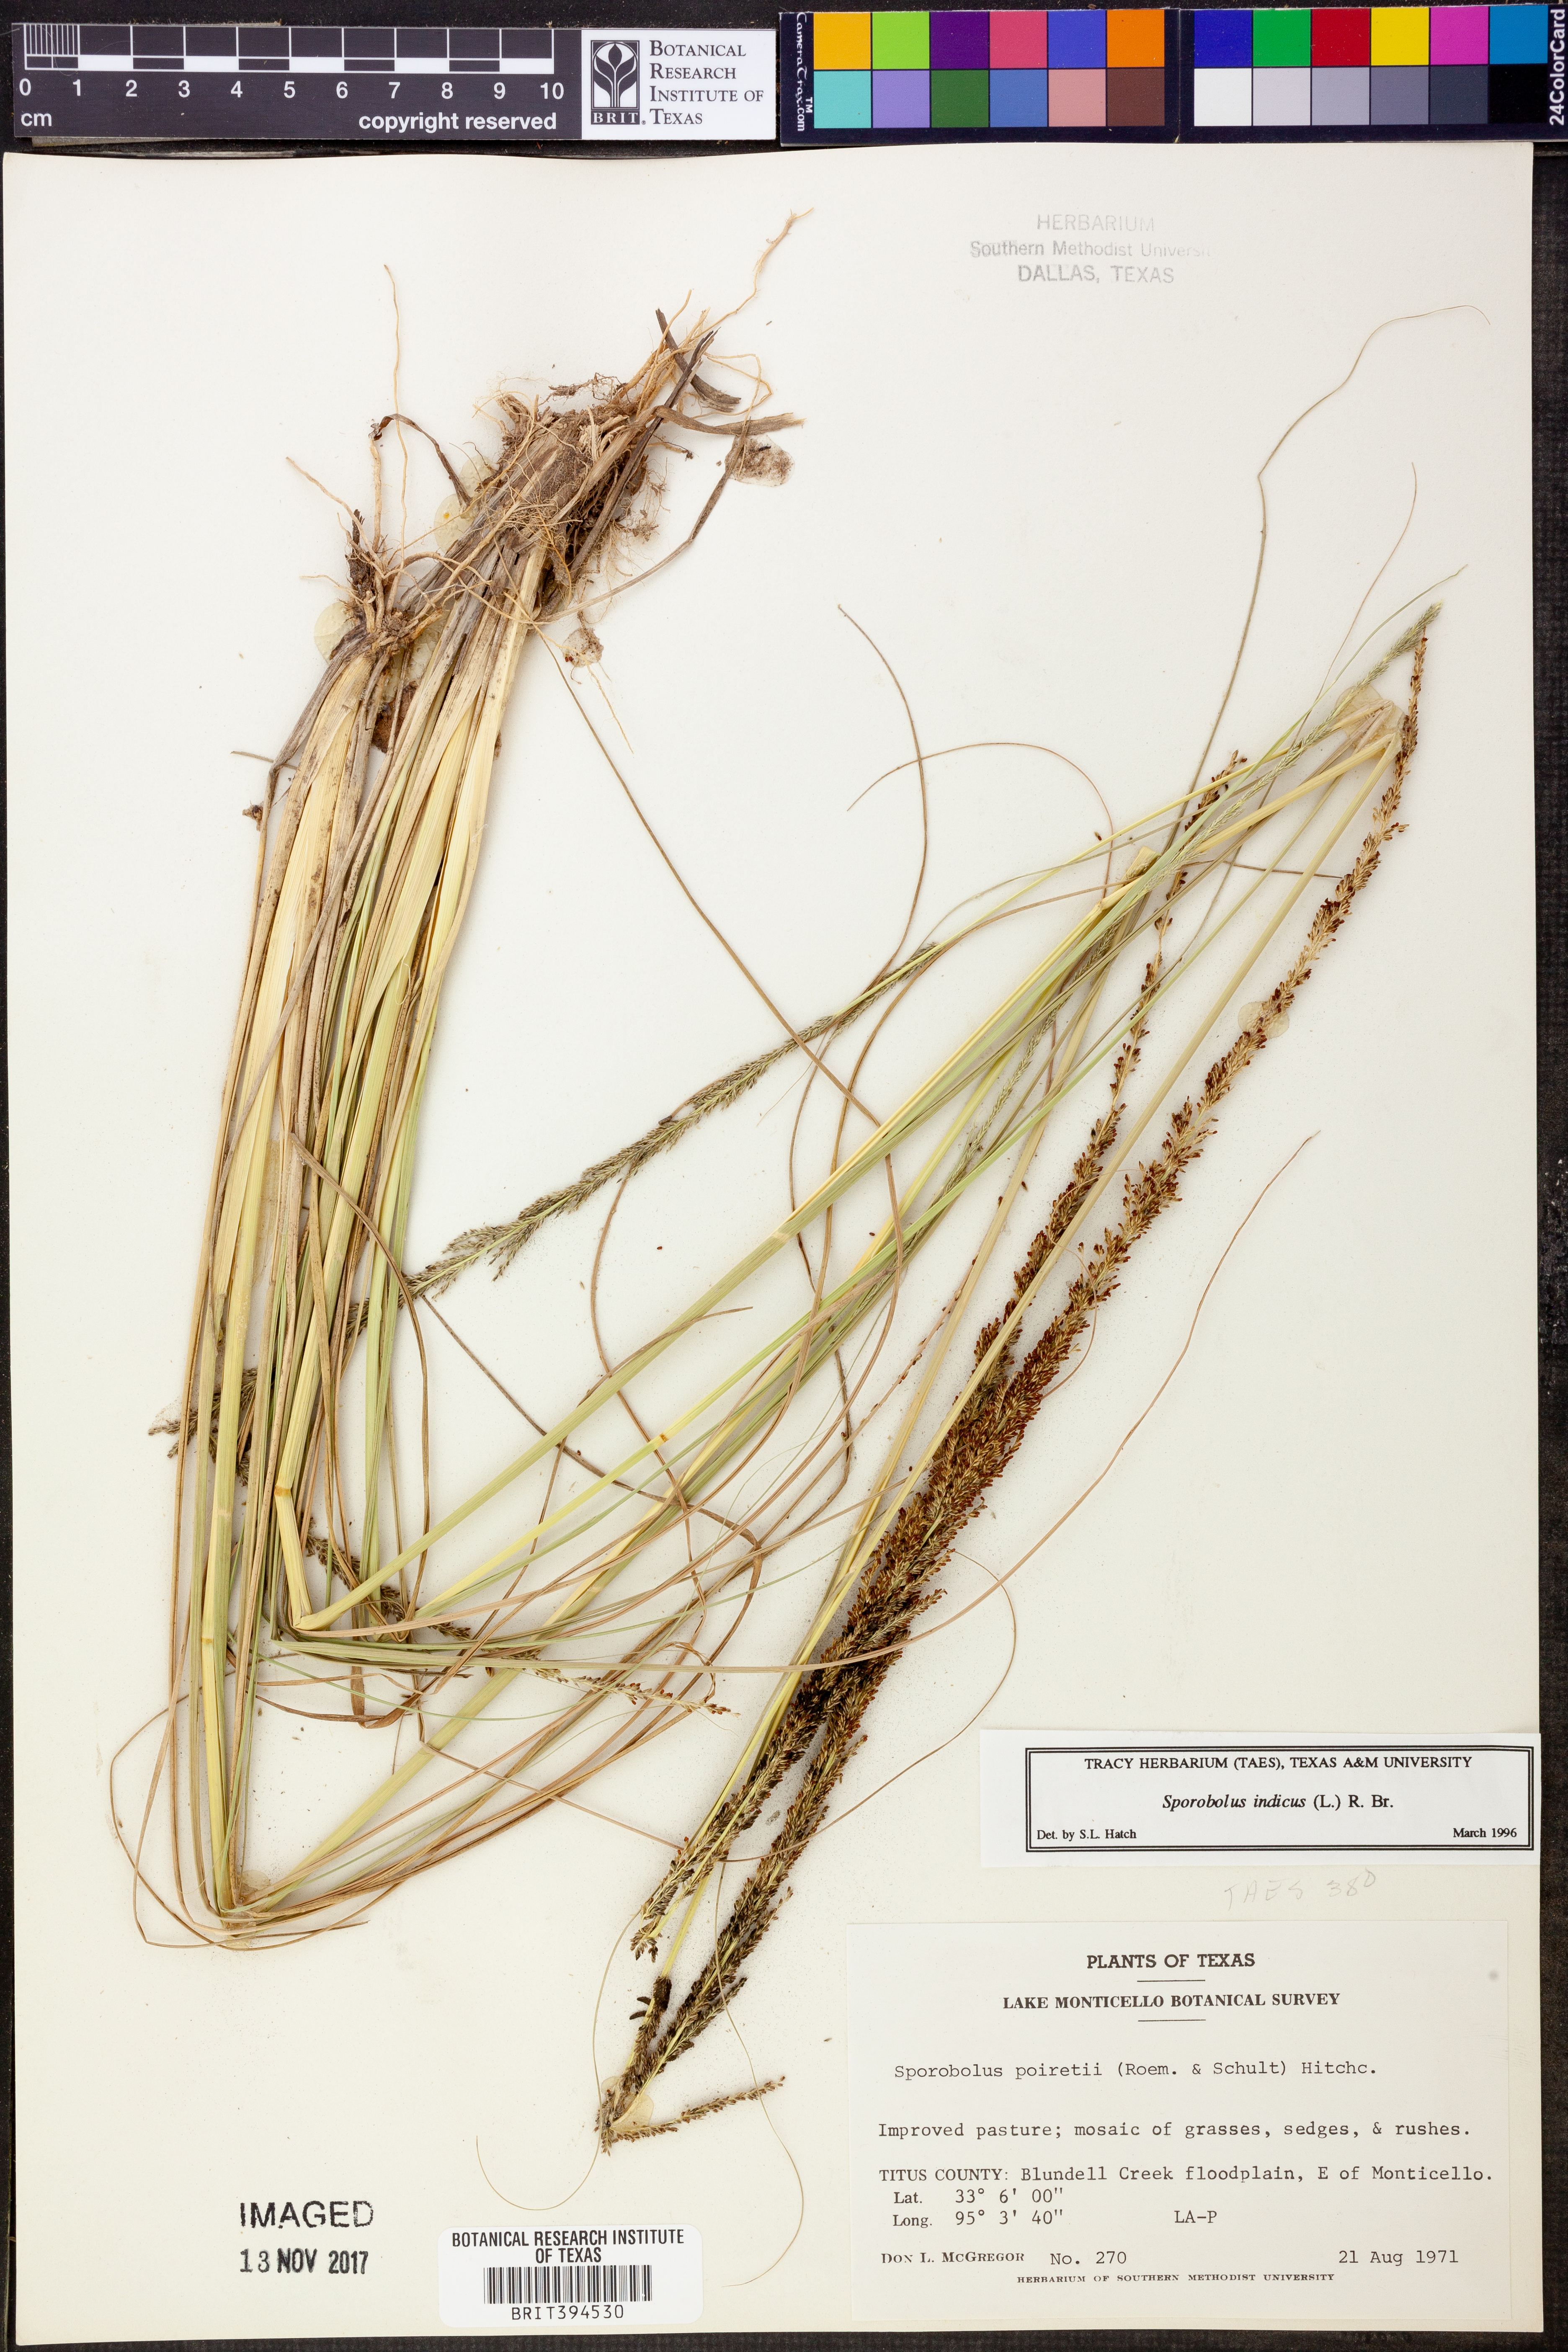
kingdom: Plantae
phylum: Tracheophyta
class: Liliopsida
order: Poales
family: Poaceae
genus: Sporobolus
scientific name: Sporobolus indicus
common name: Smut grass
